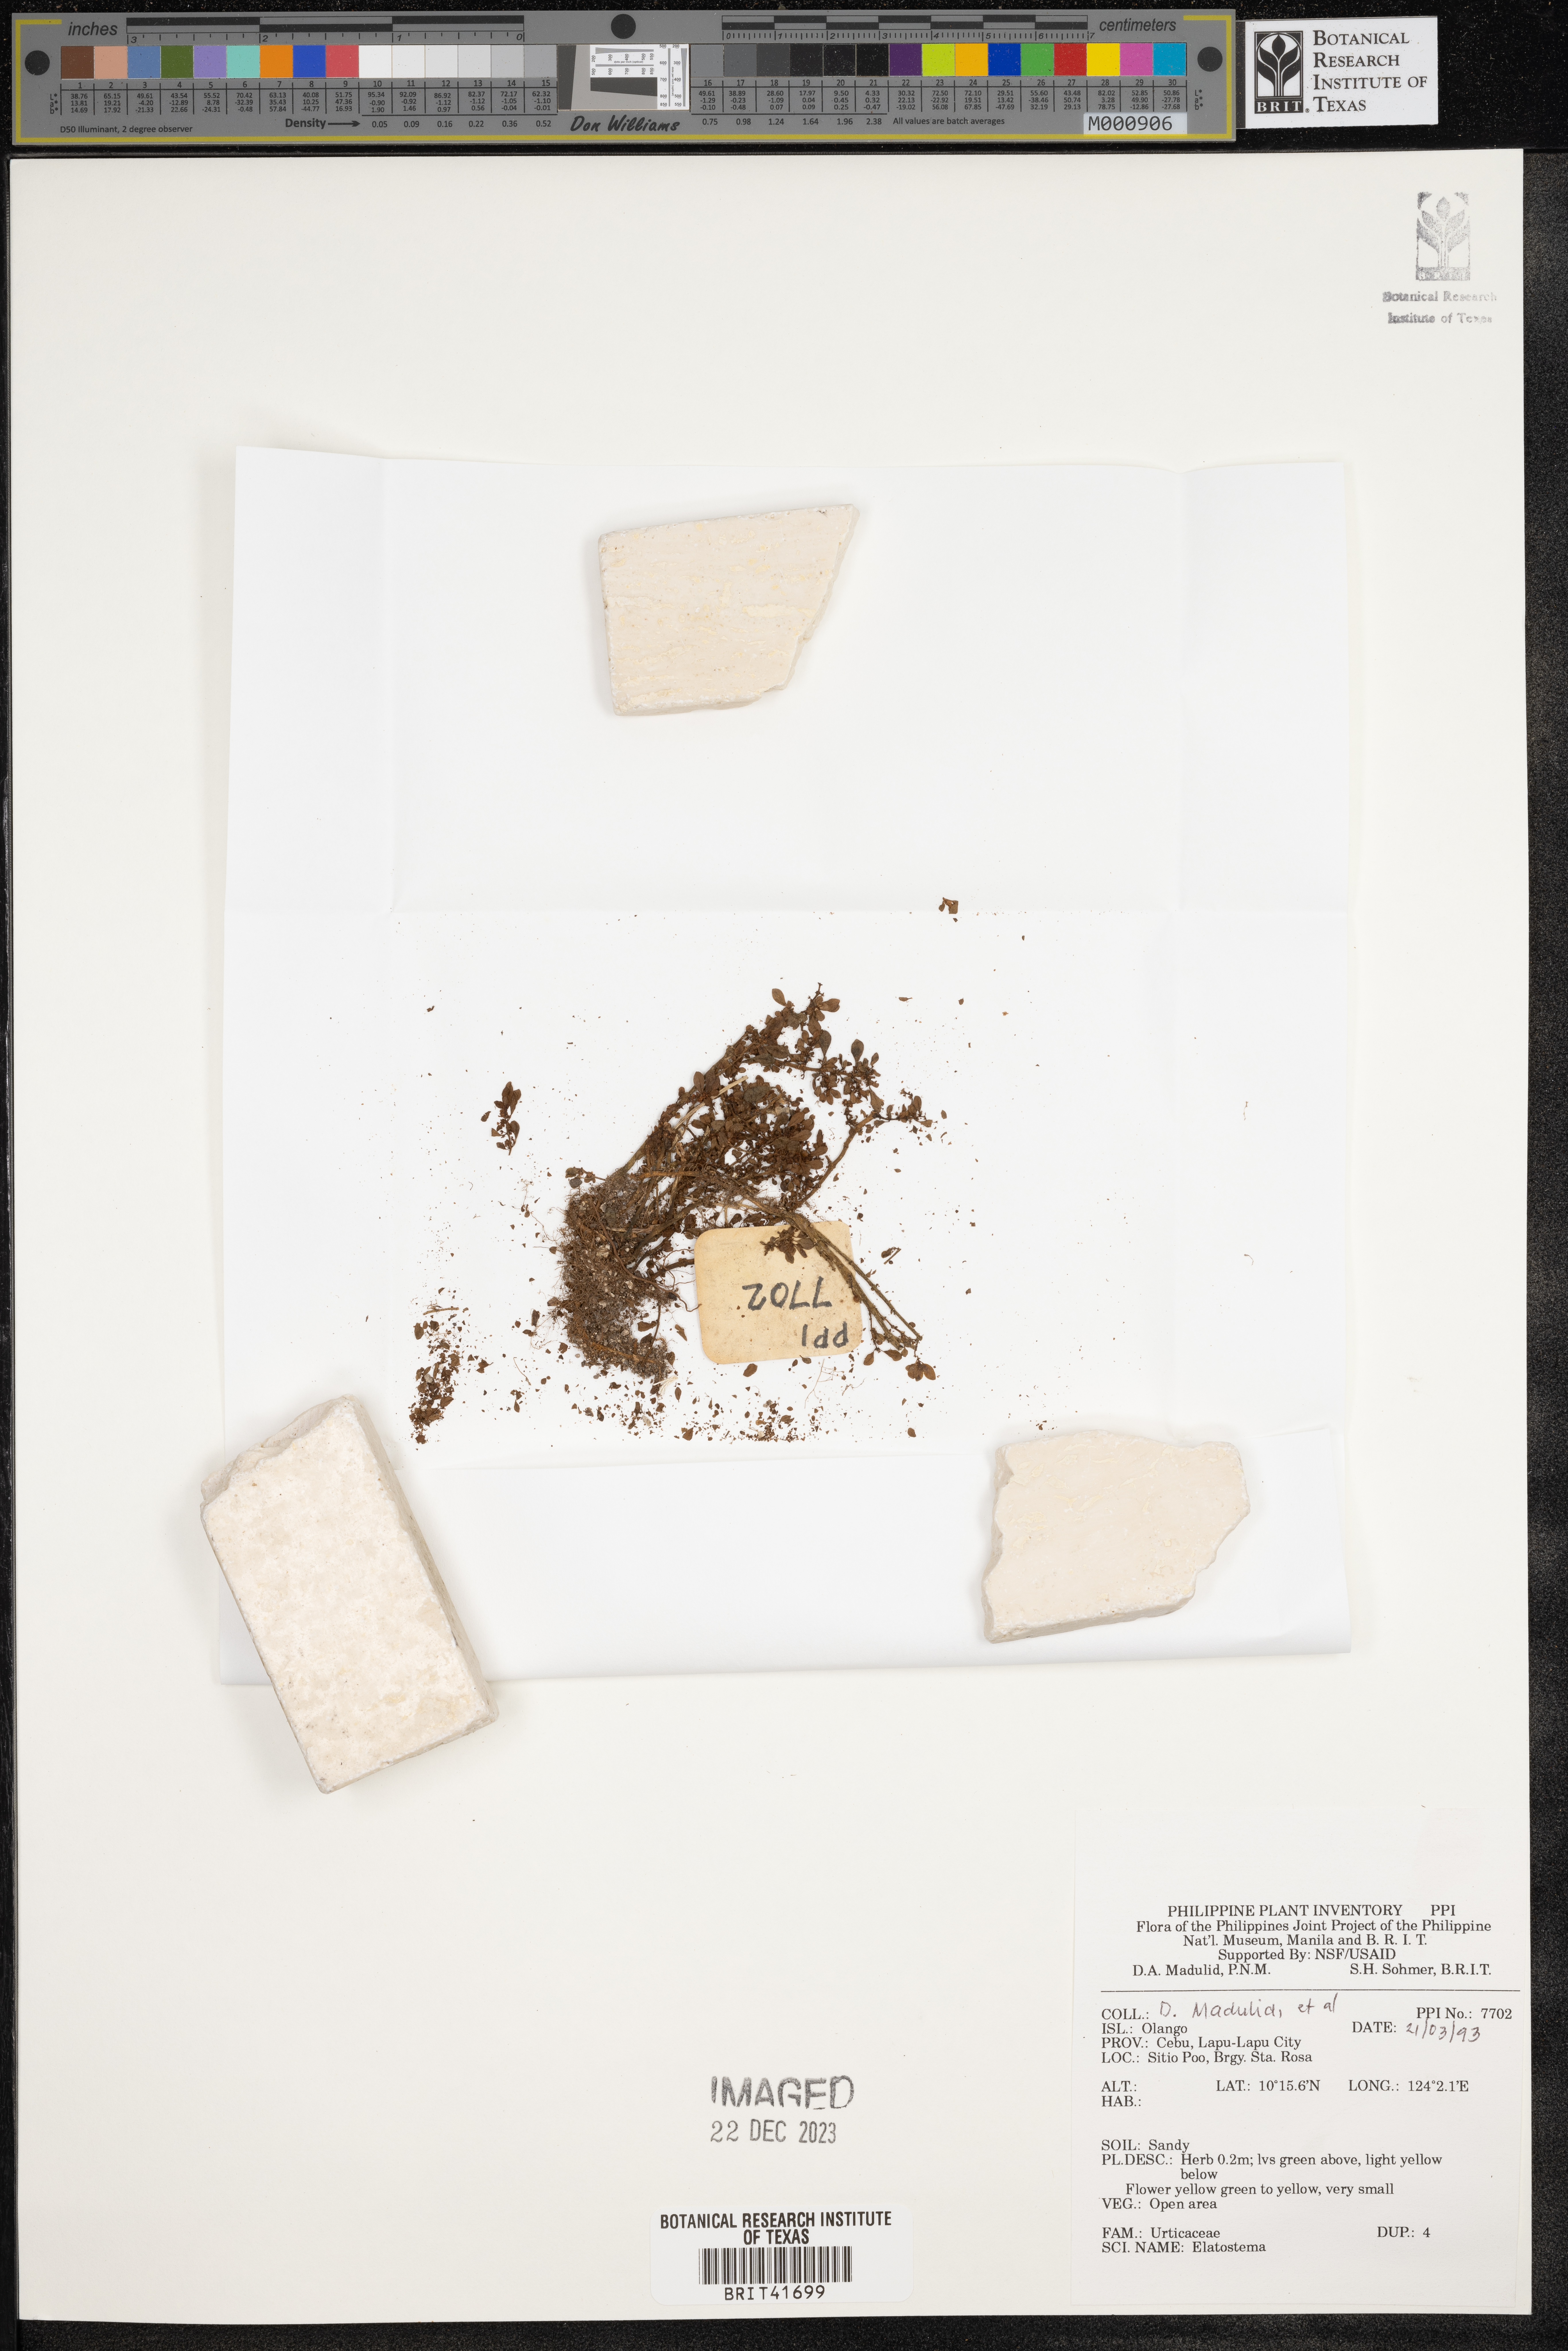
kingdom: Plantae
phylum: Tracheophyta
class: Magnoliopsida
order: Rosales
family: Urticaceae
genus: Elatostema
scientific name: Elatostema
